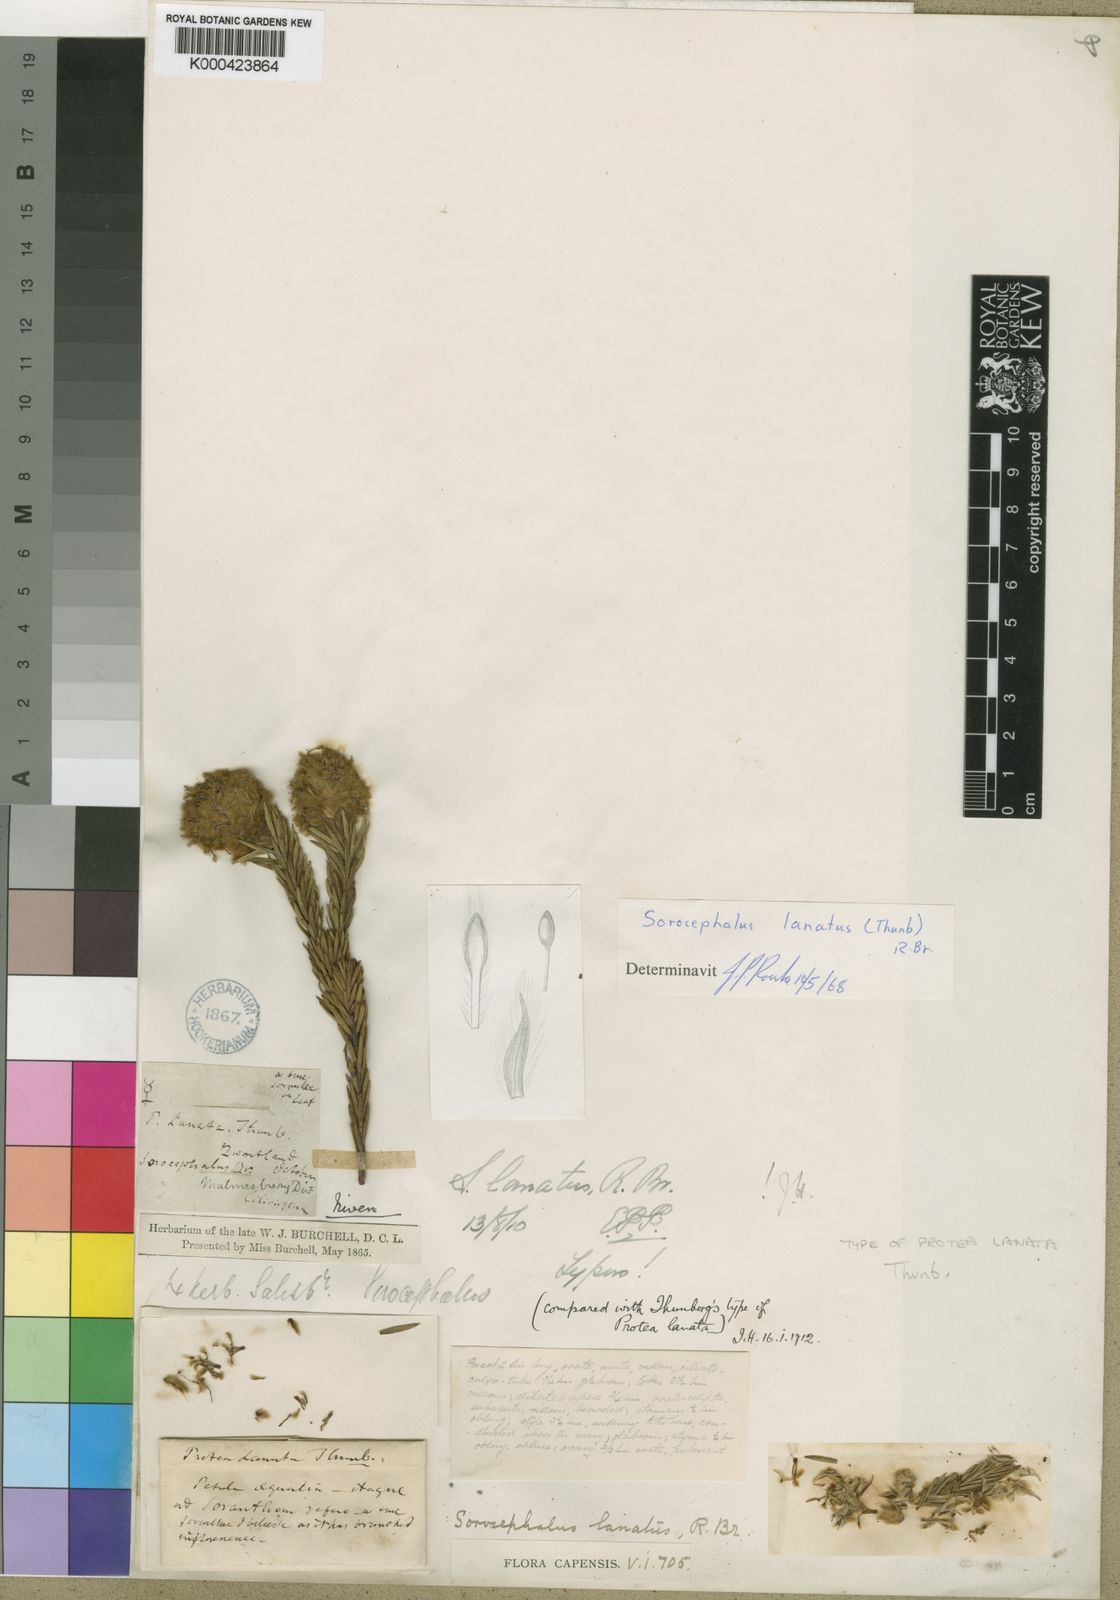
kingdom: Plantae
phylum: Tracheophyta
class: Magnoliopsida
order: Proteales
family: Proteaceae
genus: Sorocephalus
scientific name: Sorocephalus lanatus
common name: Common clusterhead
